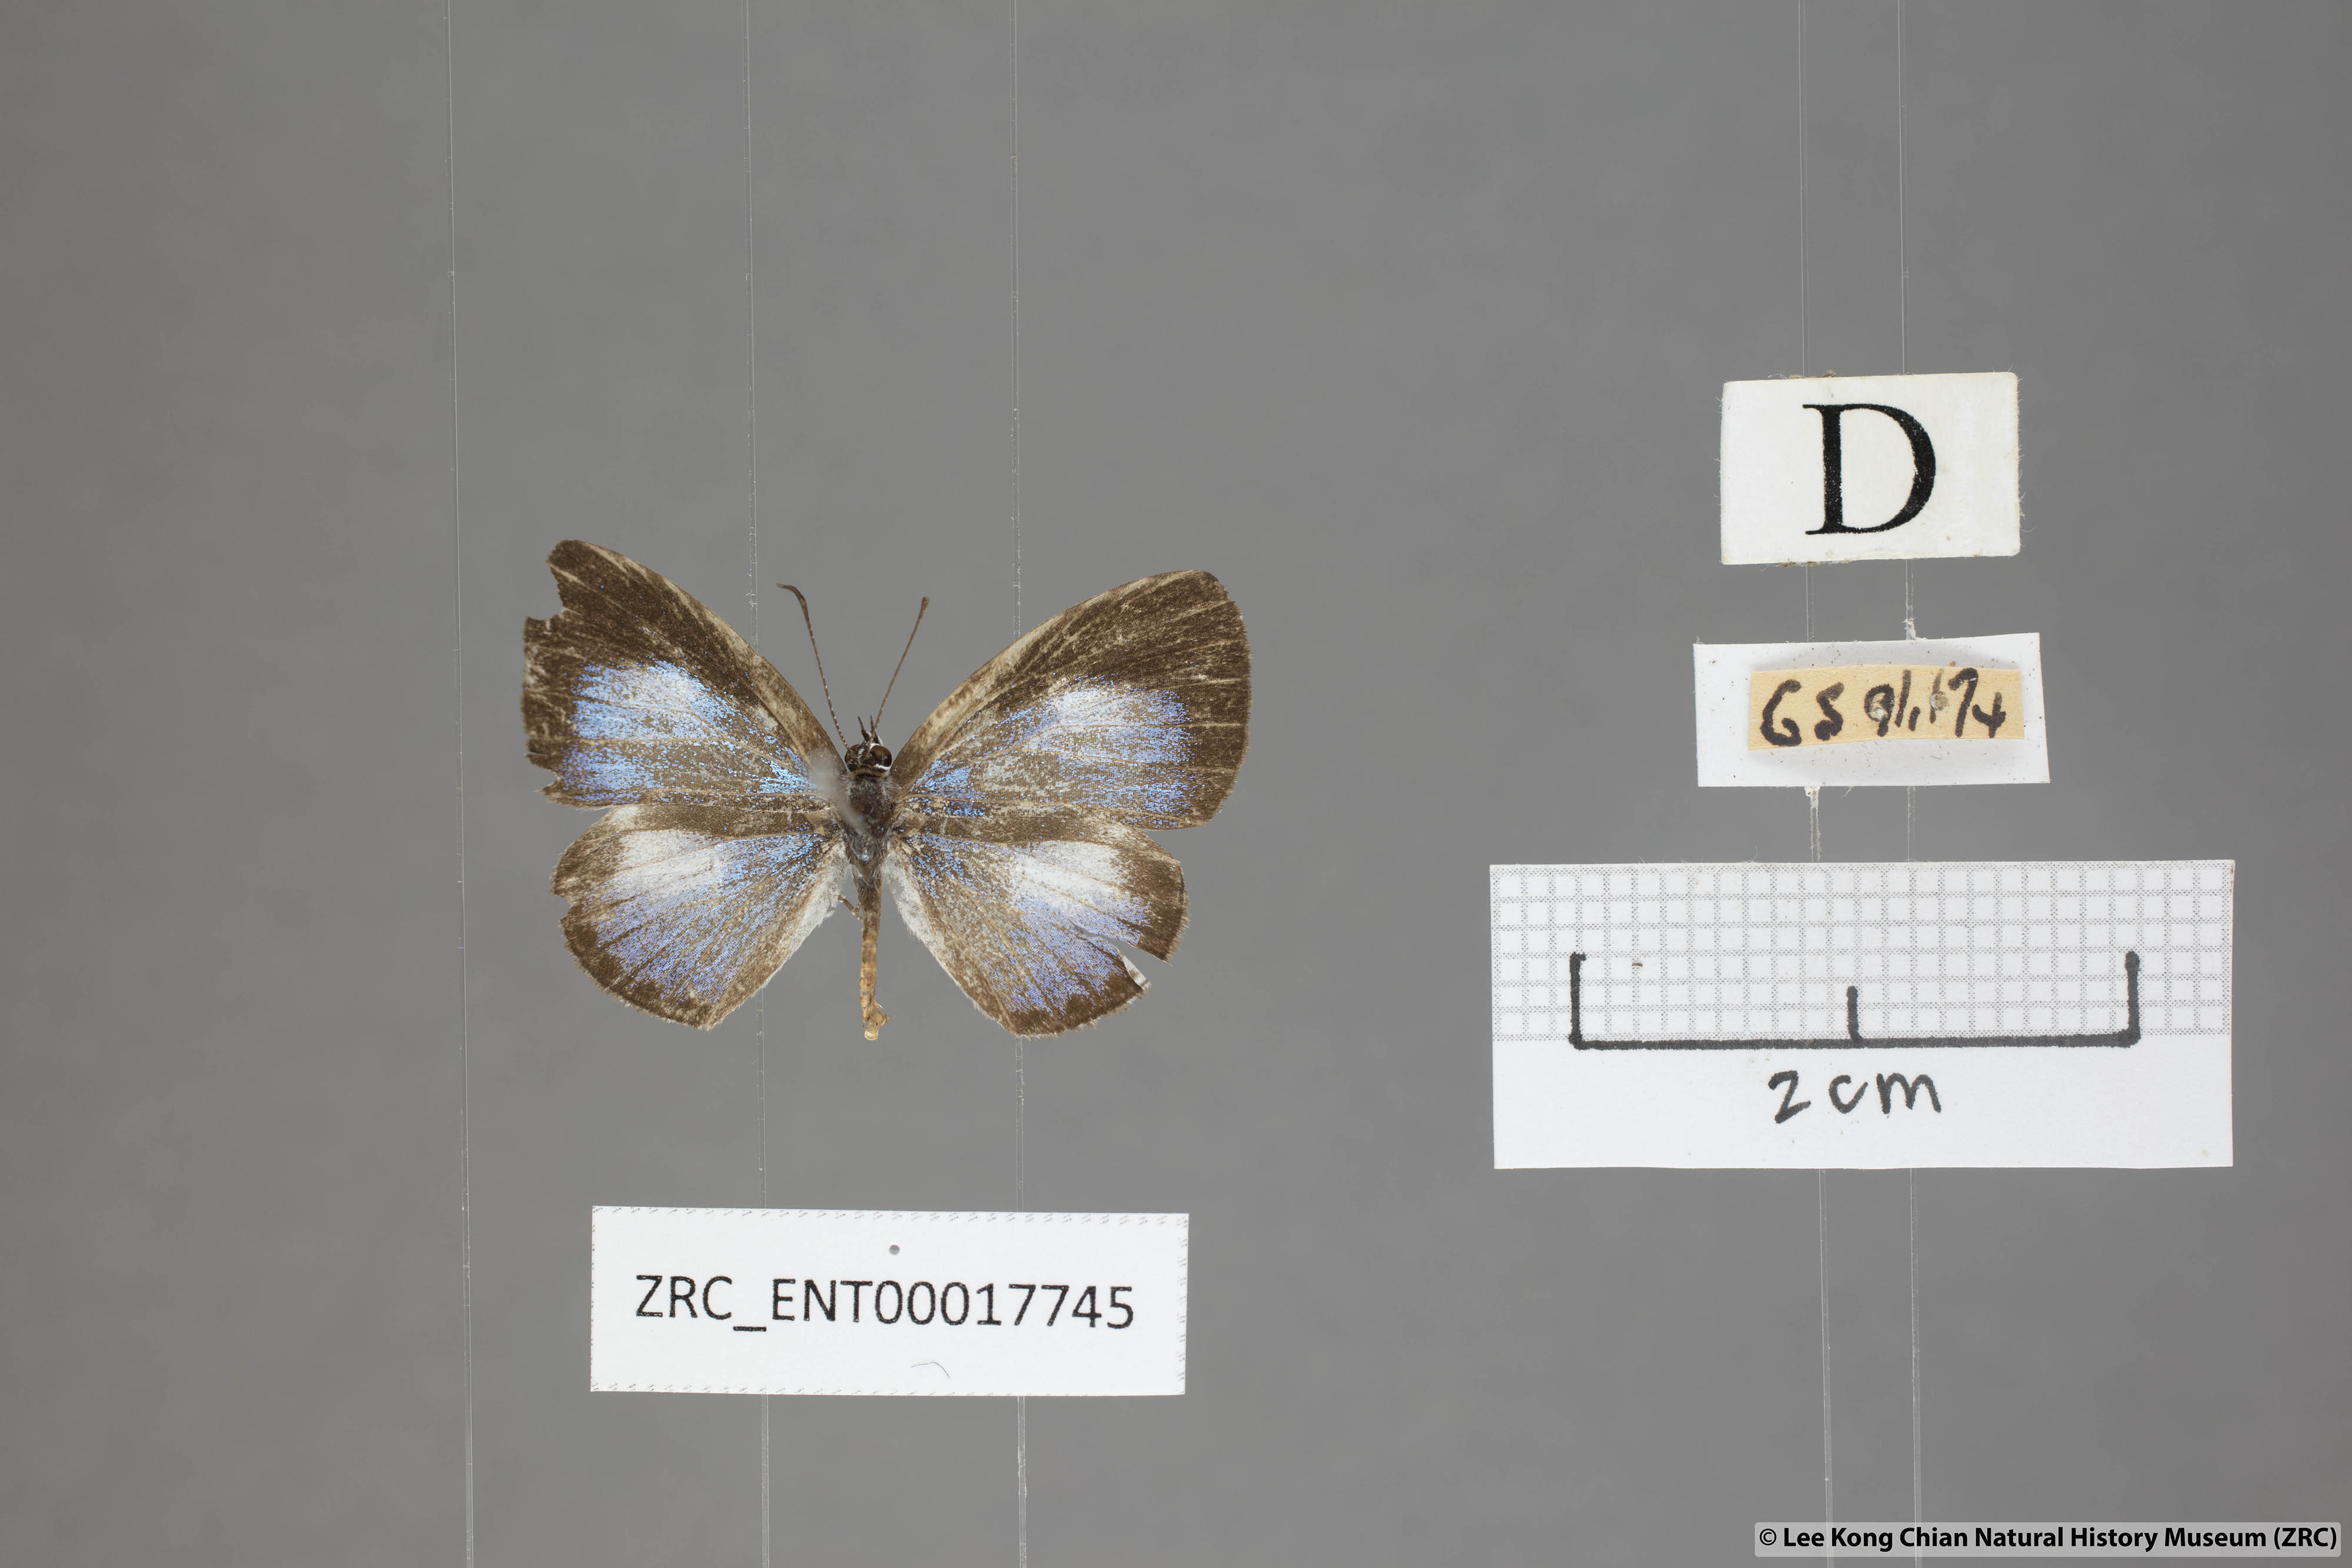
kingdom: Animalia
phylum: Arthropoda
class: Insecta
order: Lepidoptera
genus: Plautella
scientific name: Plautella
